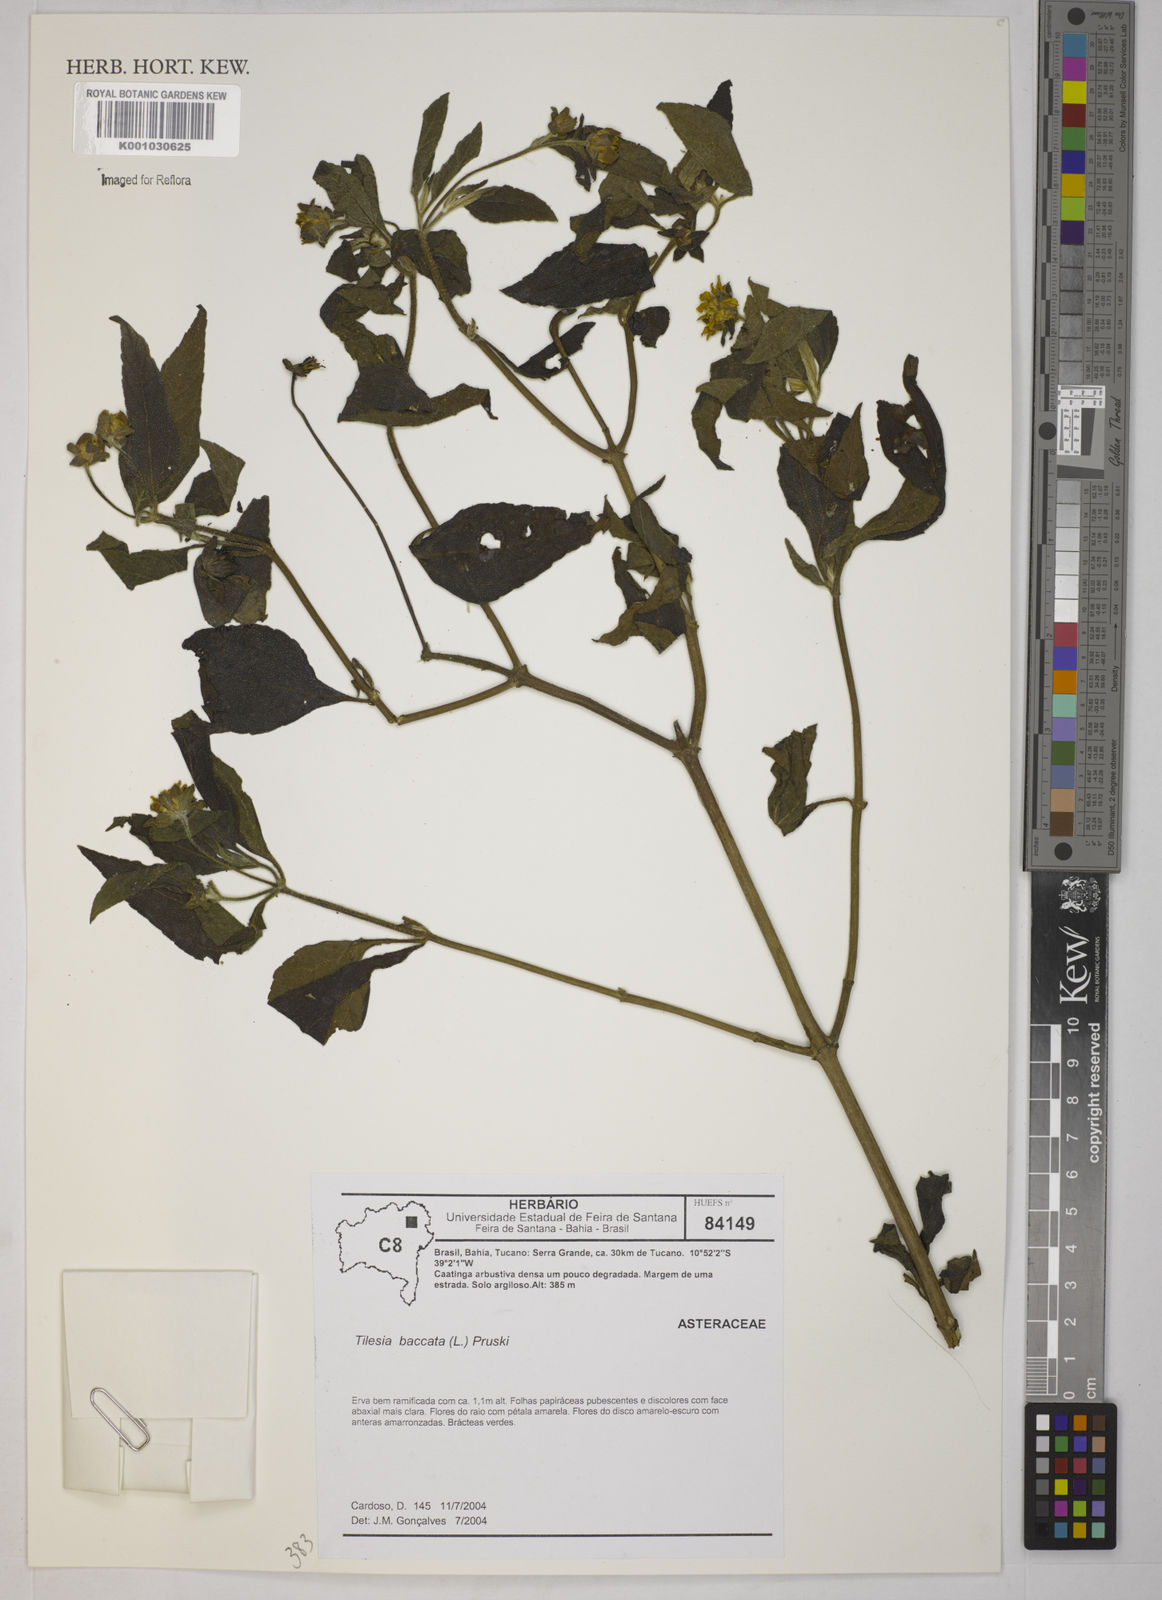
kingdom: Plantae
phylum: Tracheophyta
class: Magnoliopsida
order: Asterales
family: Asteraceae
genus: Tilesia
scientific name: Tilesia baccata
